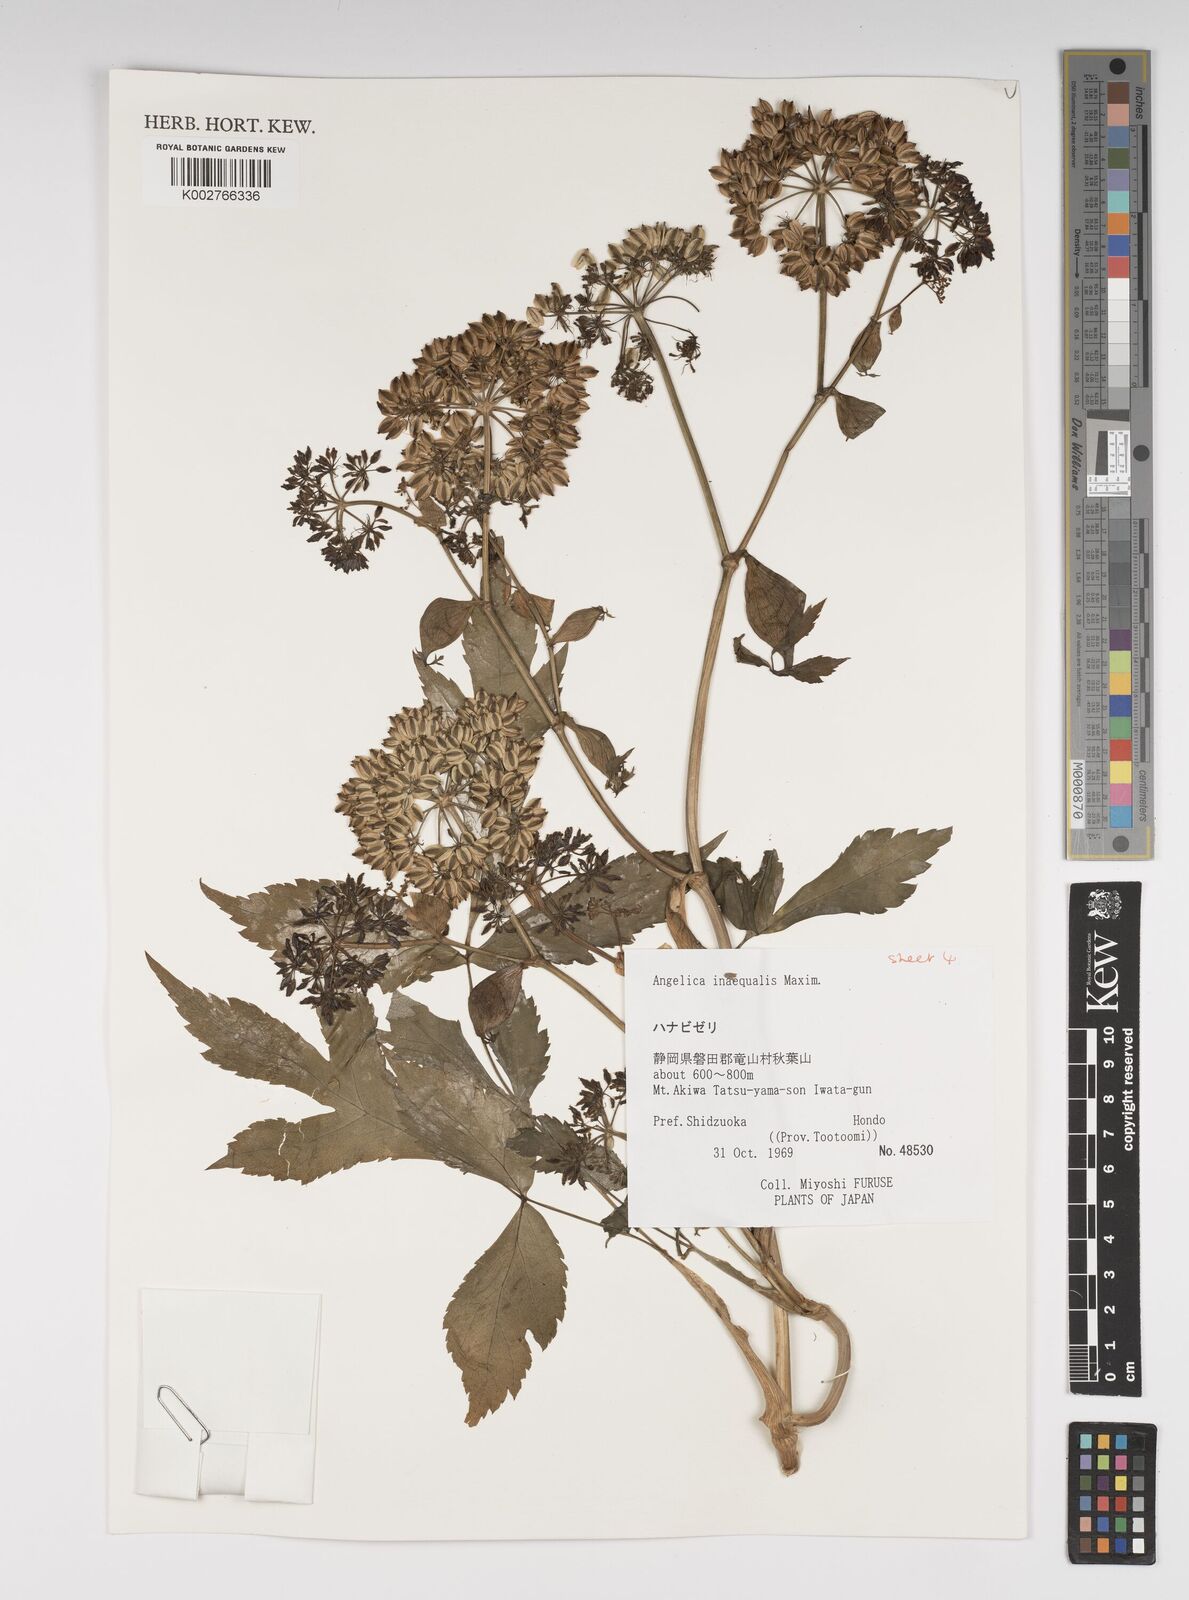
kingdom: Plantae
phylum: Tracheophyta
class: Magnoliopsida
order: Apiales
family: Apiaceae
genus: Angelica
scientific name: Angelica inaequalis
